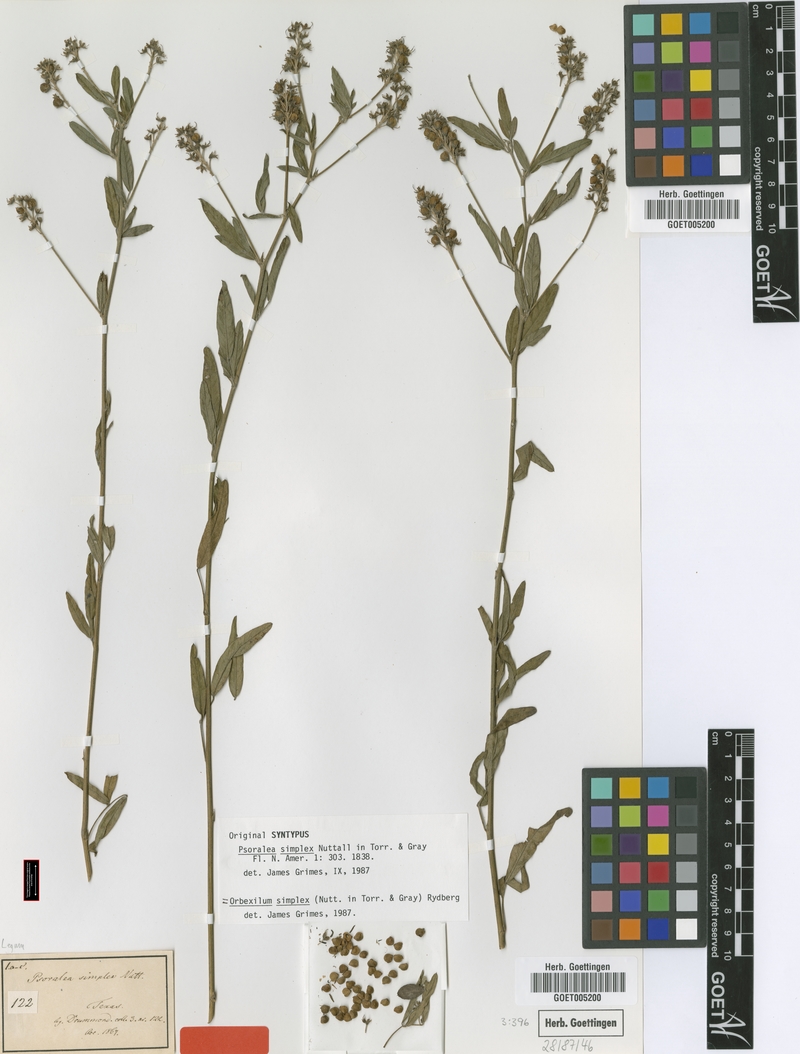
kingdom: Plantae
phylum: Tracheophyta
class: Magnoliopsida
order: Fabales
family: Fabaceae
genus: Orbexilum
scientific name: Orbexilum simplex
